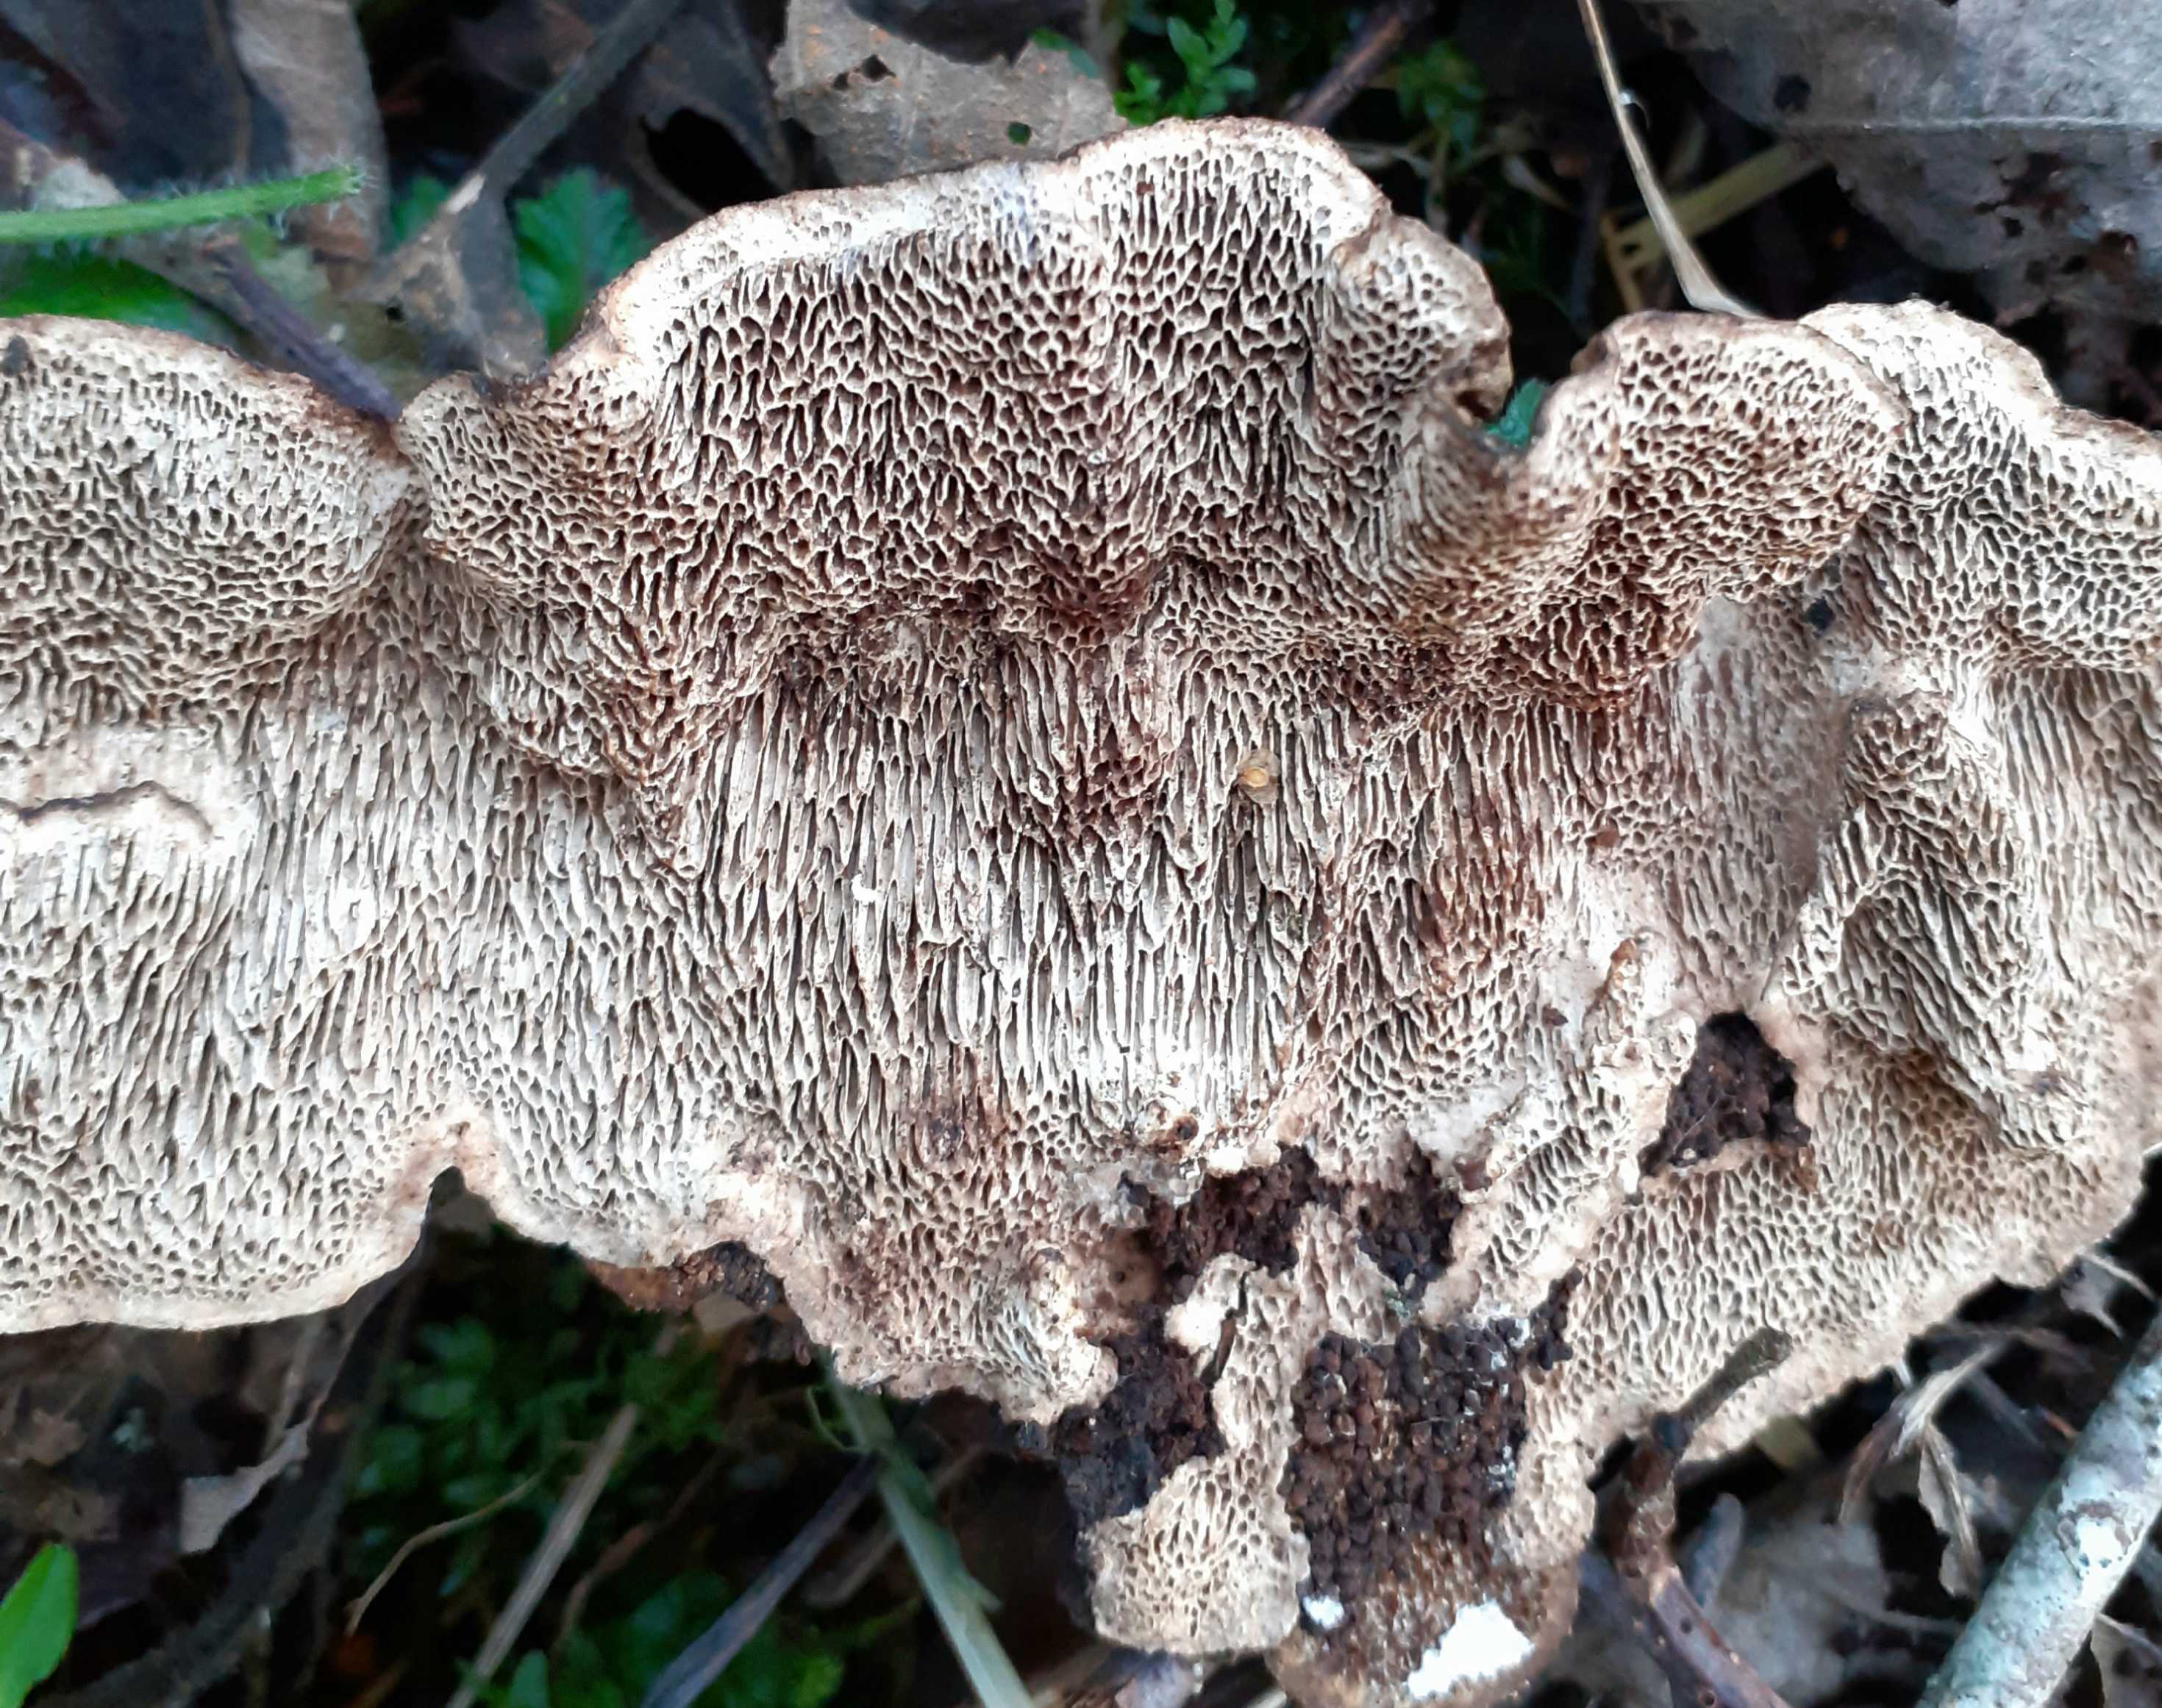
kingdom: Fungi
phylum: Basidiomycota
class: Agaricomycetes
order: Polyporales
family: Polyporaceae
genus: Podofomes
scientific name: Podofomes mollis
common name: blød begporesvamp
